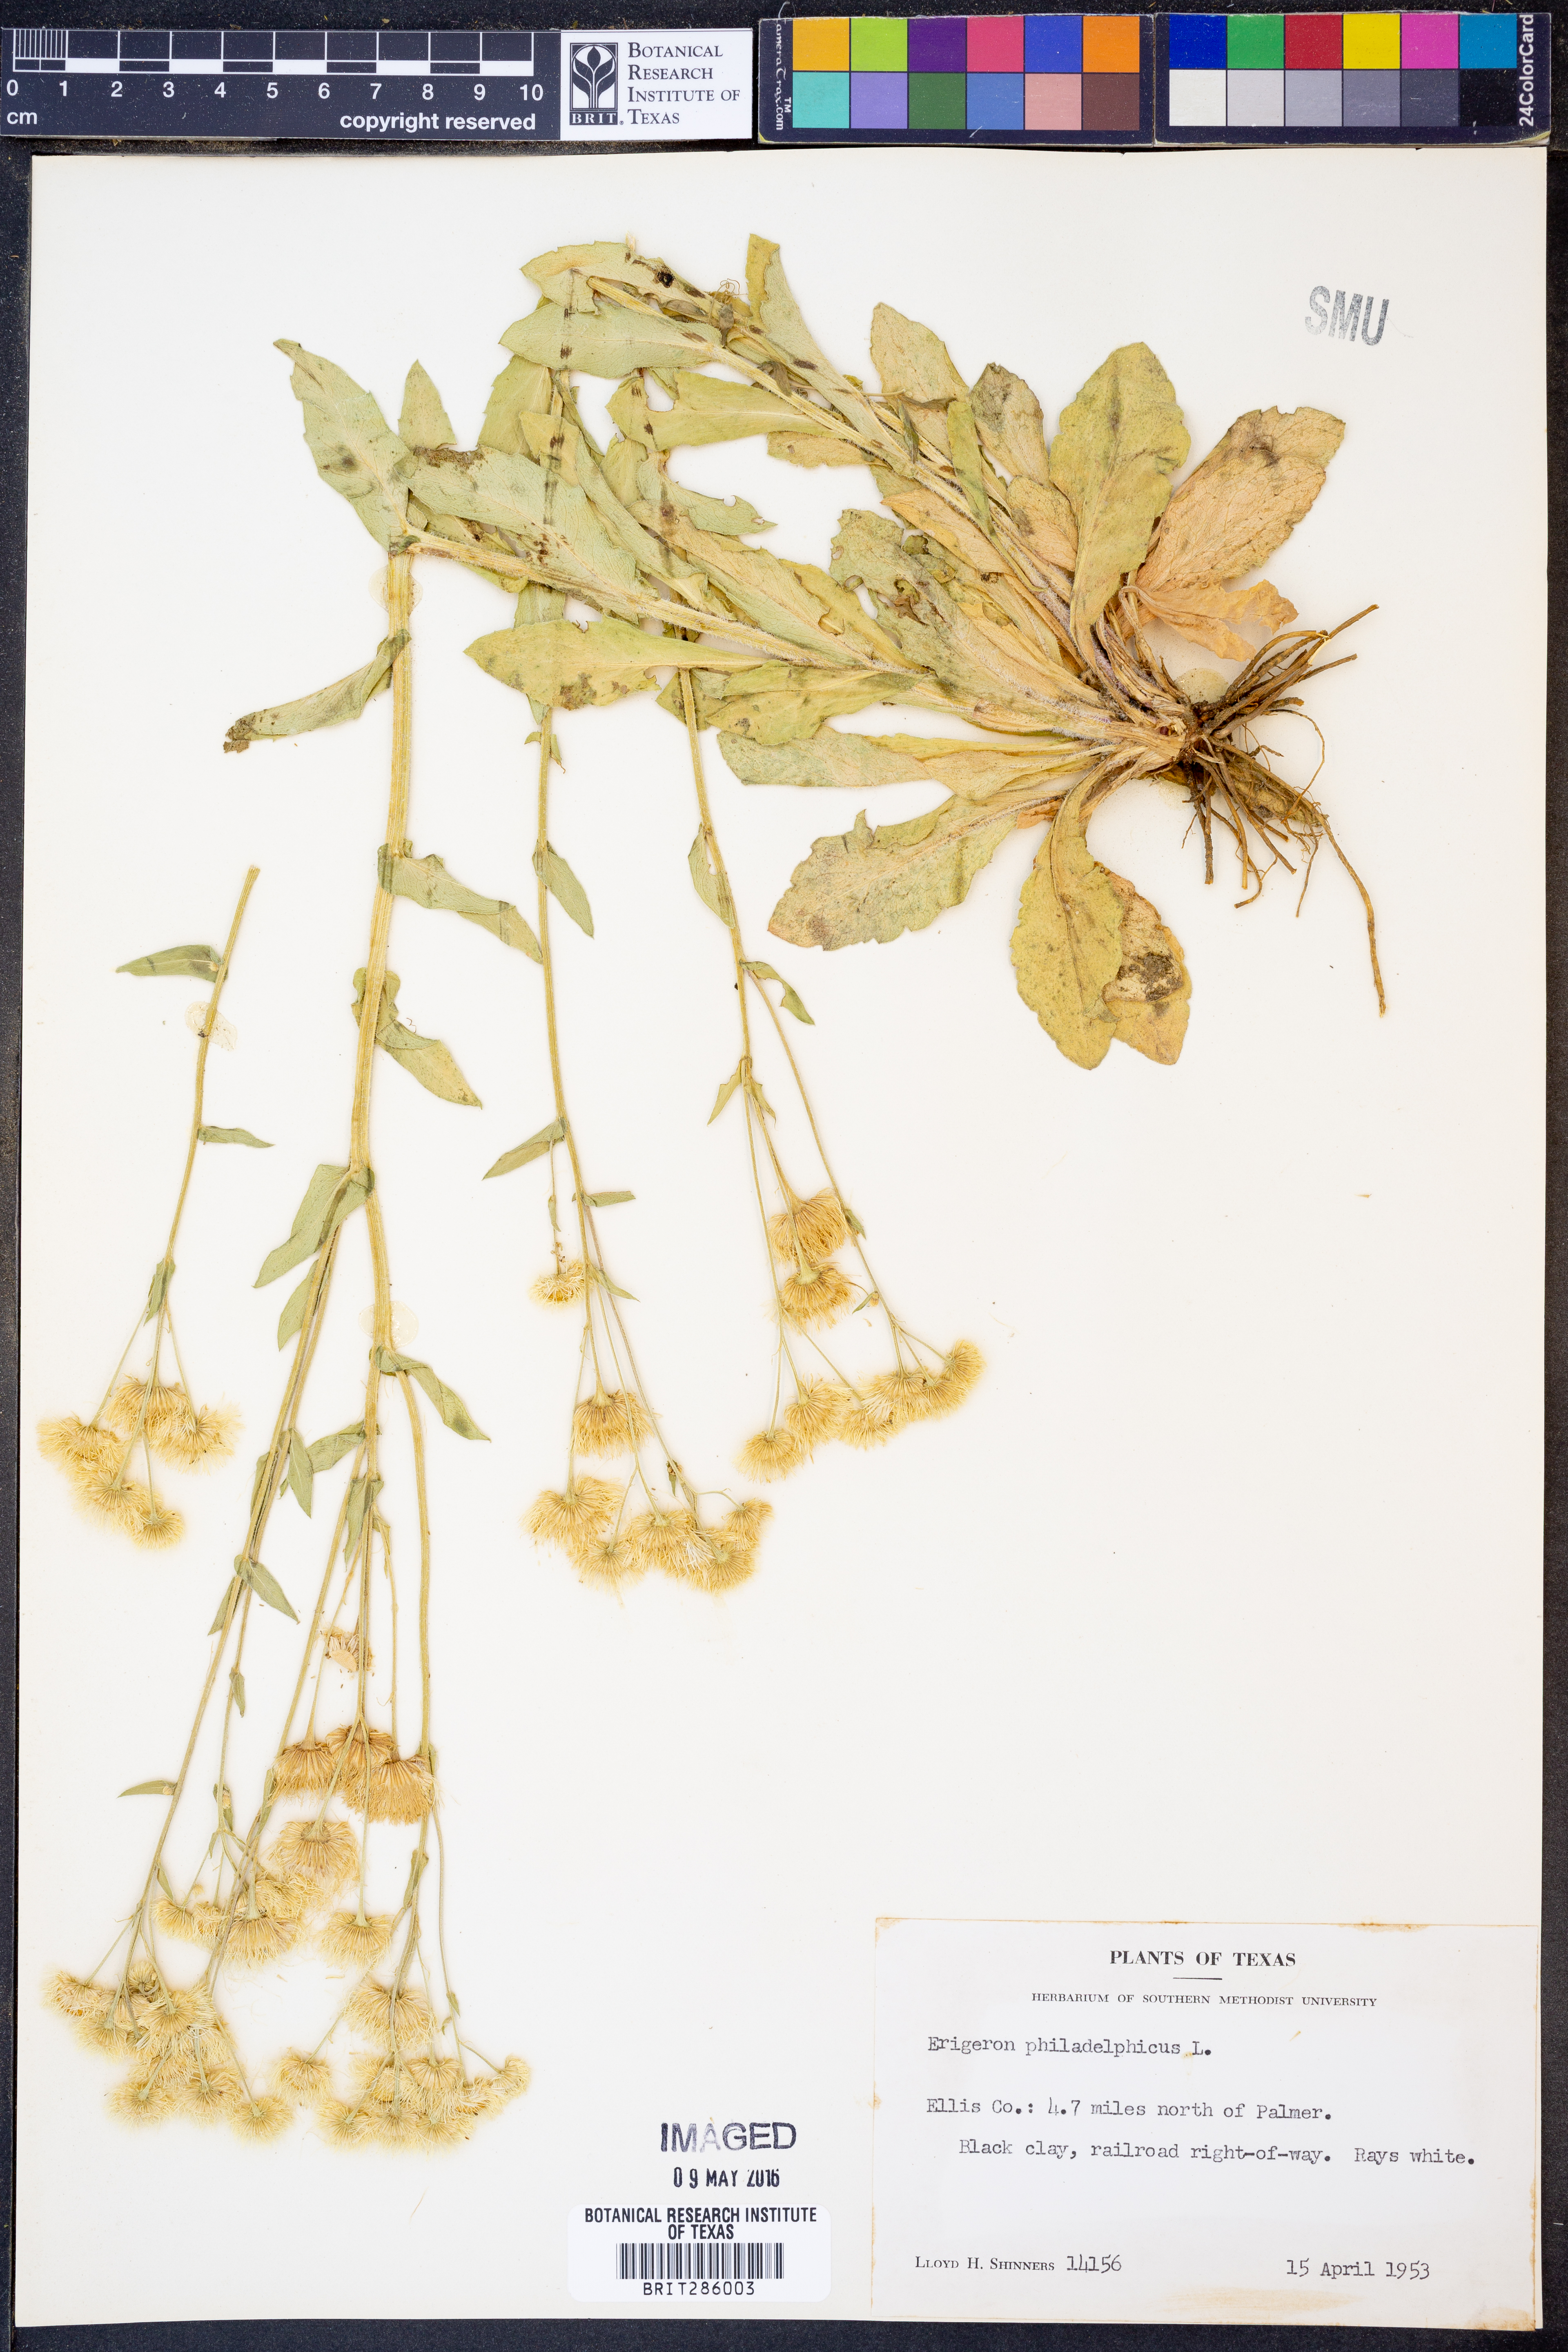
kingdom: Plantae
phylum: Tracheophyta
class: Magnoliopsida
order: Asterales
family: Asteraceae
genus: Erigeron
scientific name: Erigeron philadelphicus
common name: Robin's-plantain
